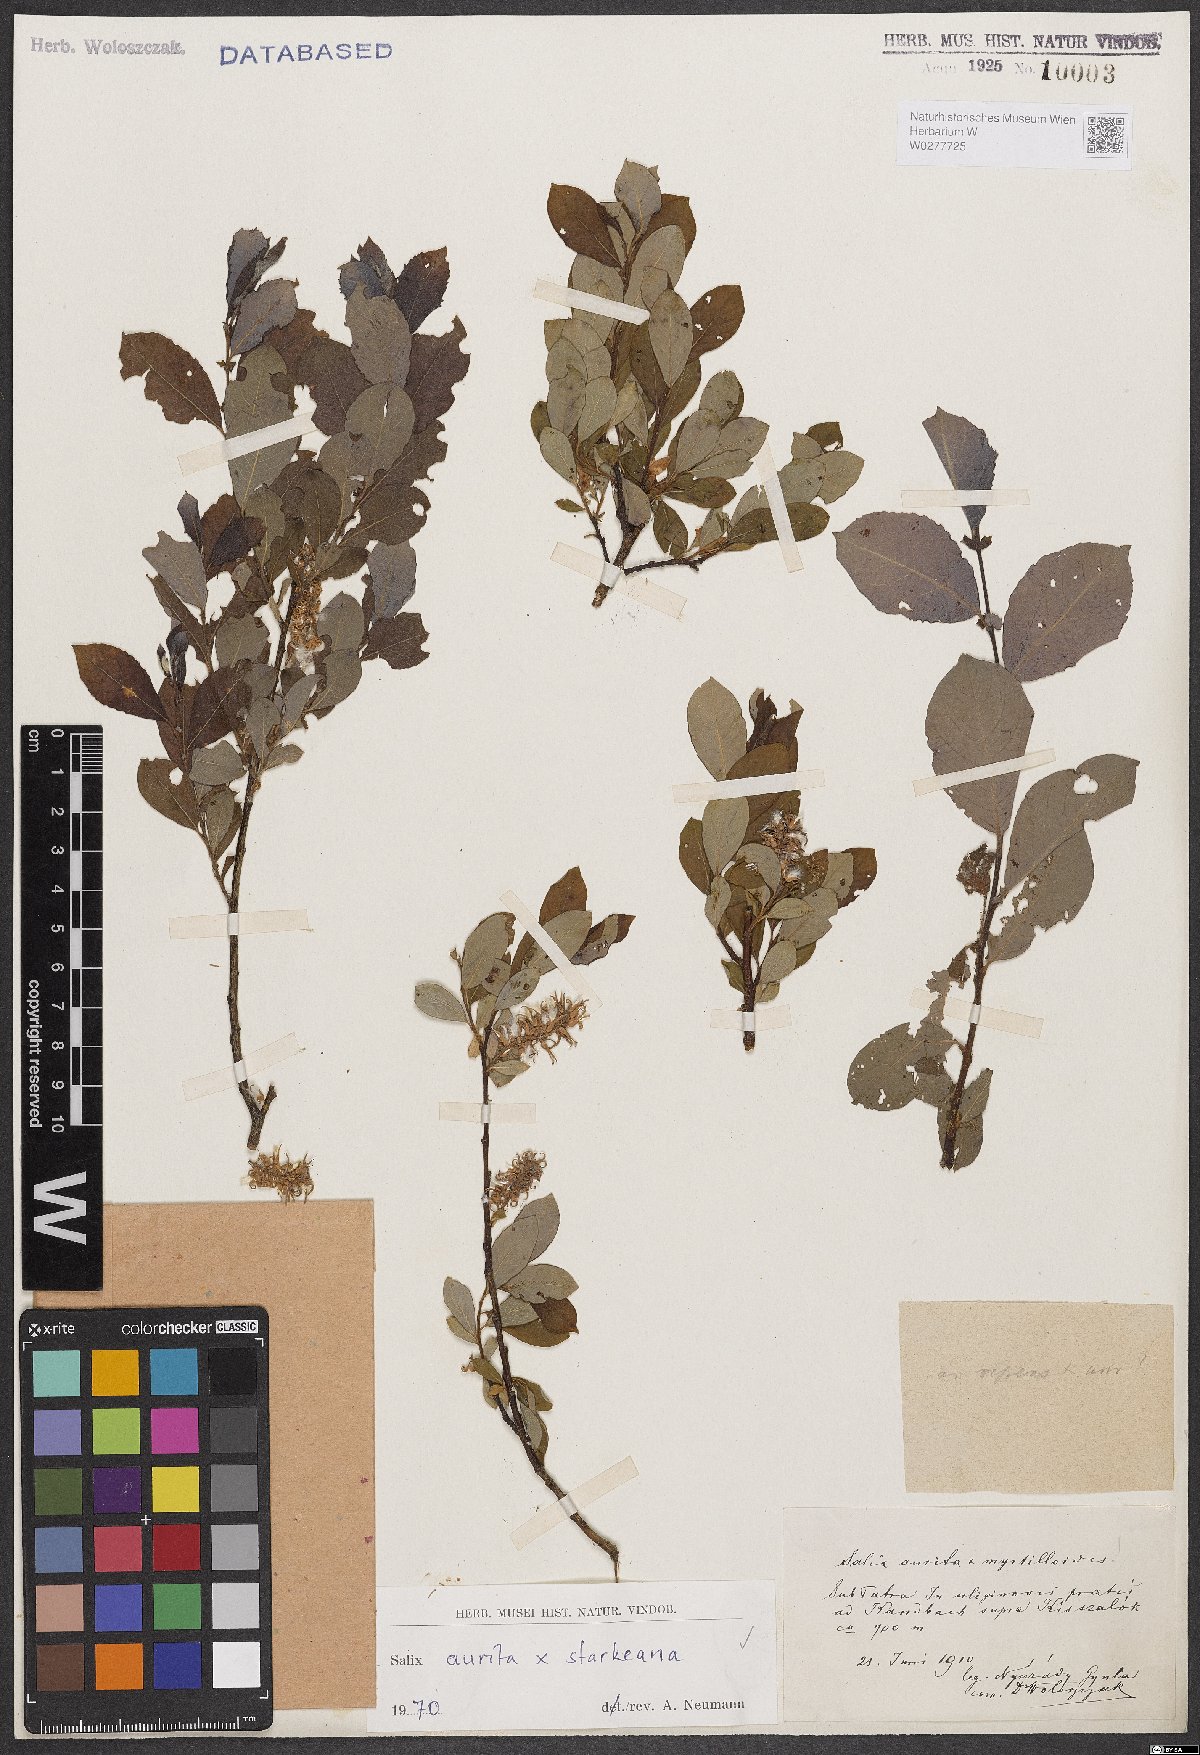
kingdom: Plantae
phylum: Tracheophyta
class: Magnoliopsida
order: Malpighiales
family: Salicaceae
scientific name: Salicaceae
